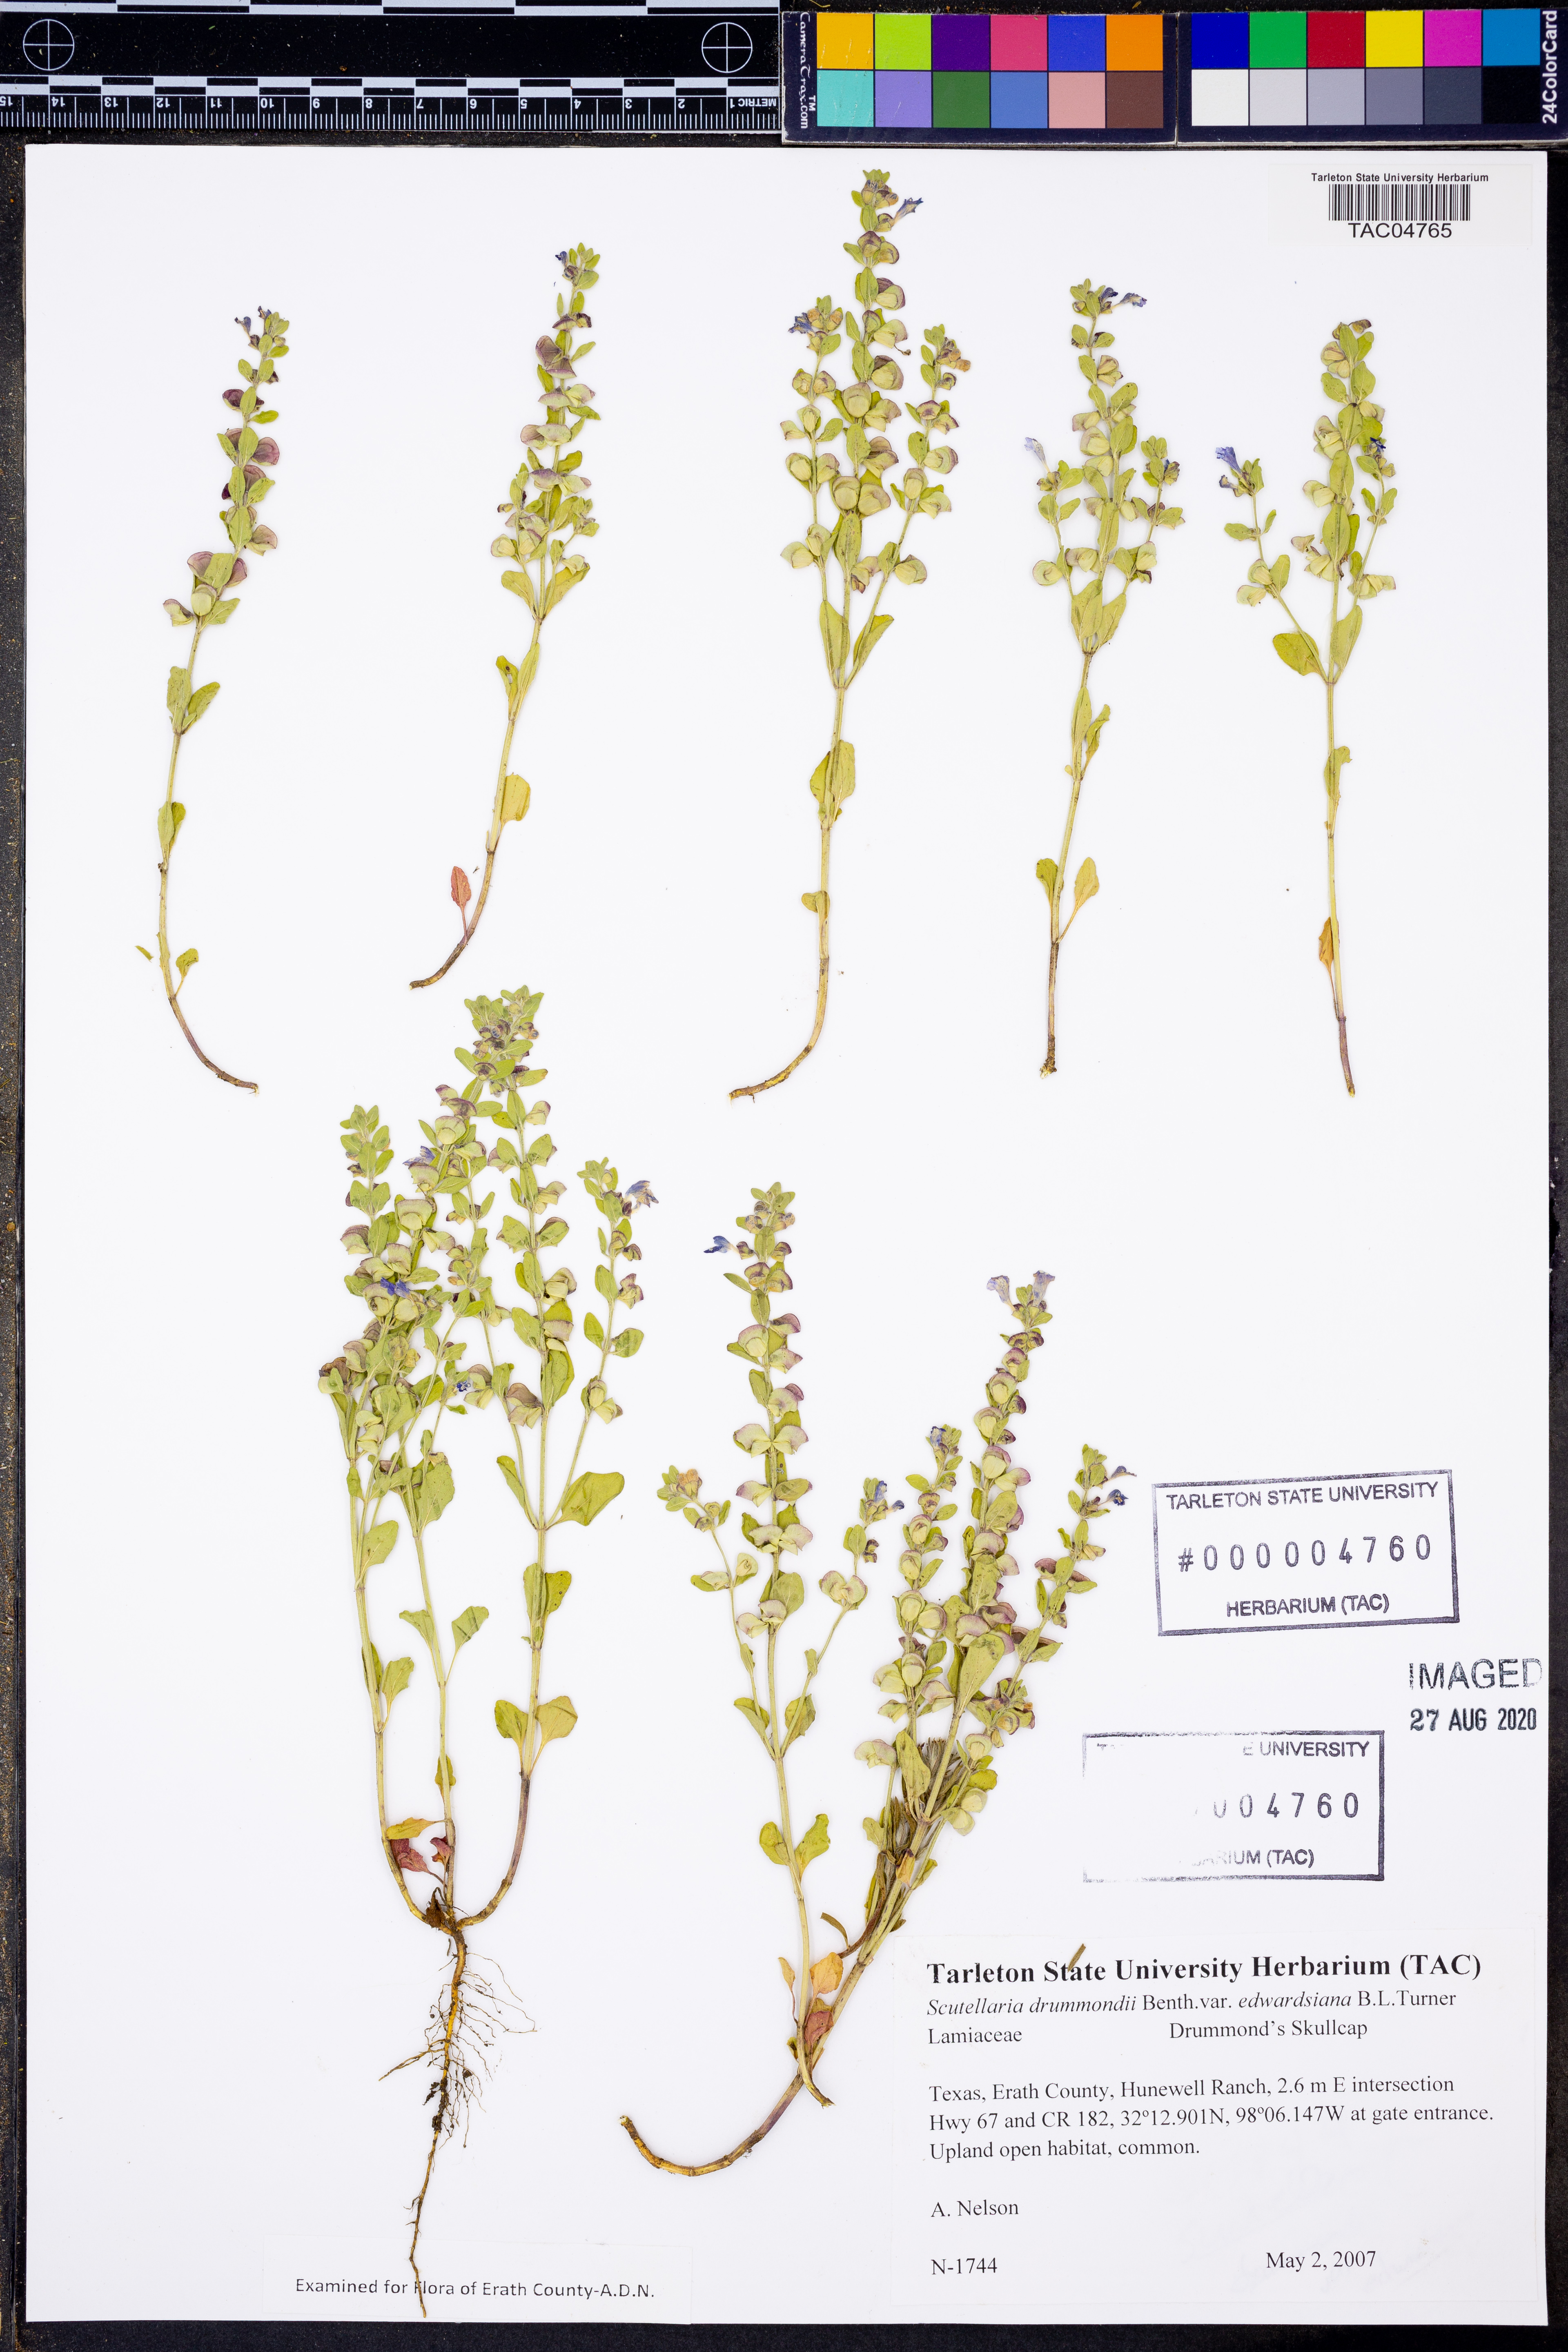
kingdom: Plantae
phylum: Tracheophyta
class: Magnoliopsida
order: Lamiales
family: Lamiaceae
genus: Scutellaria
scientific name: Scutellaria drummondii
